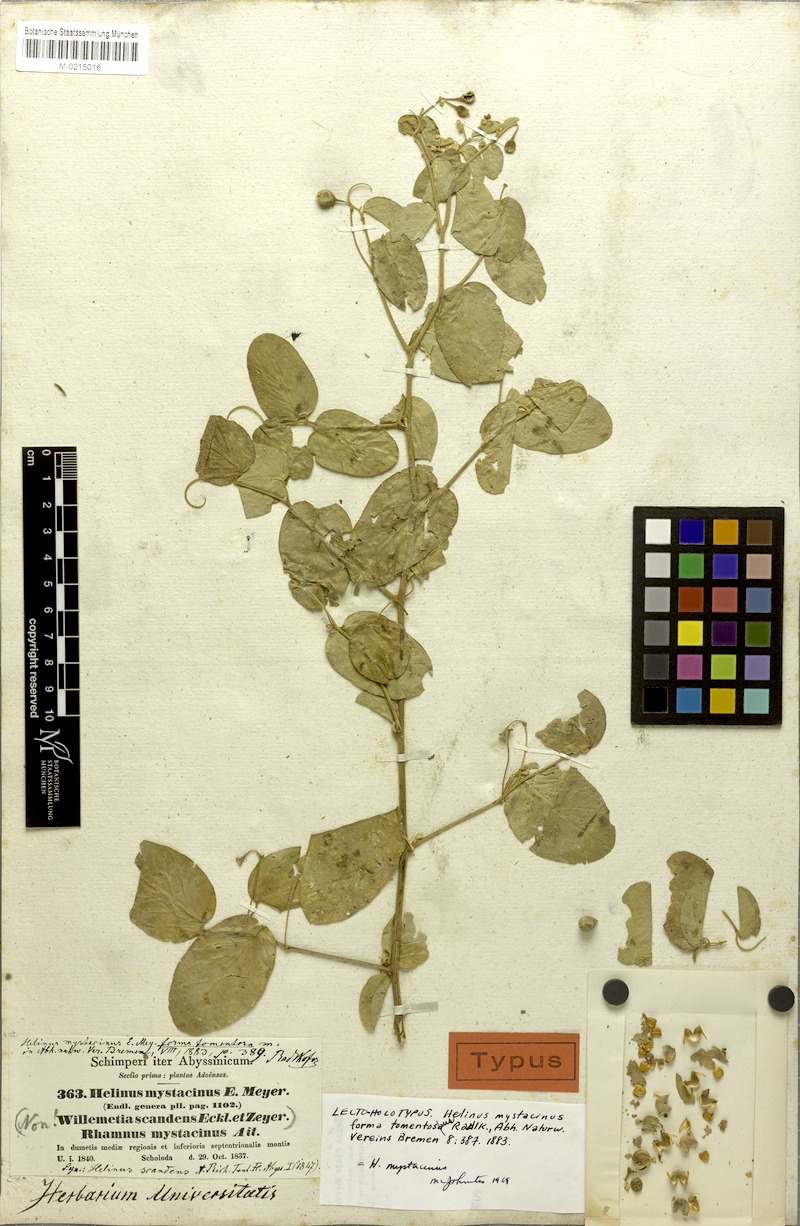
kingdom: Plantae
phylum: Tracheophyta
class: Magnoliopsida
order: Rosales
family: Rhamnaceae
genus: Helinus
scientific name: Helinus mystacinus
